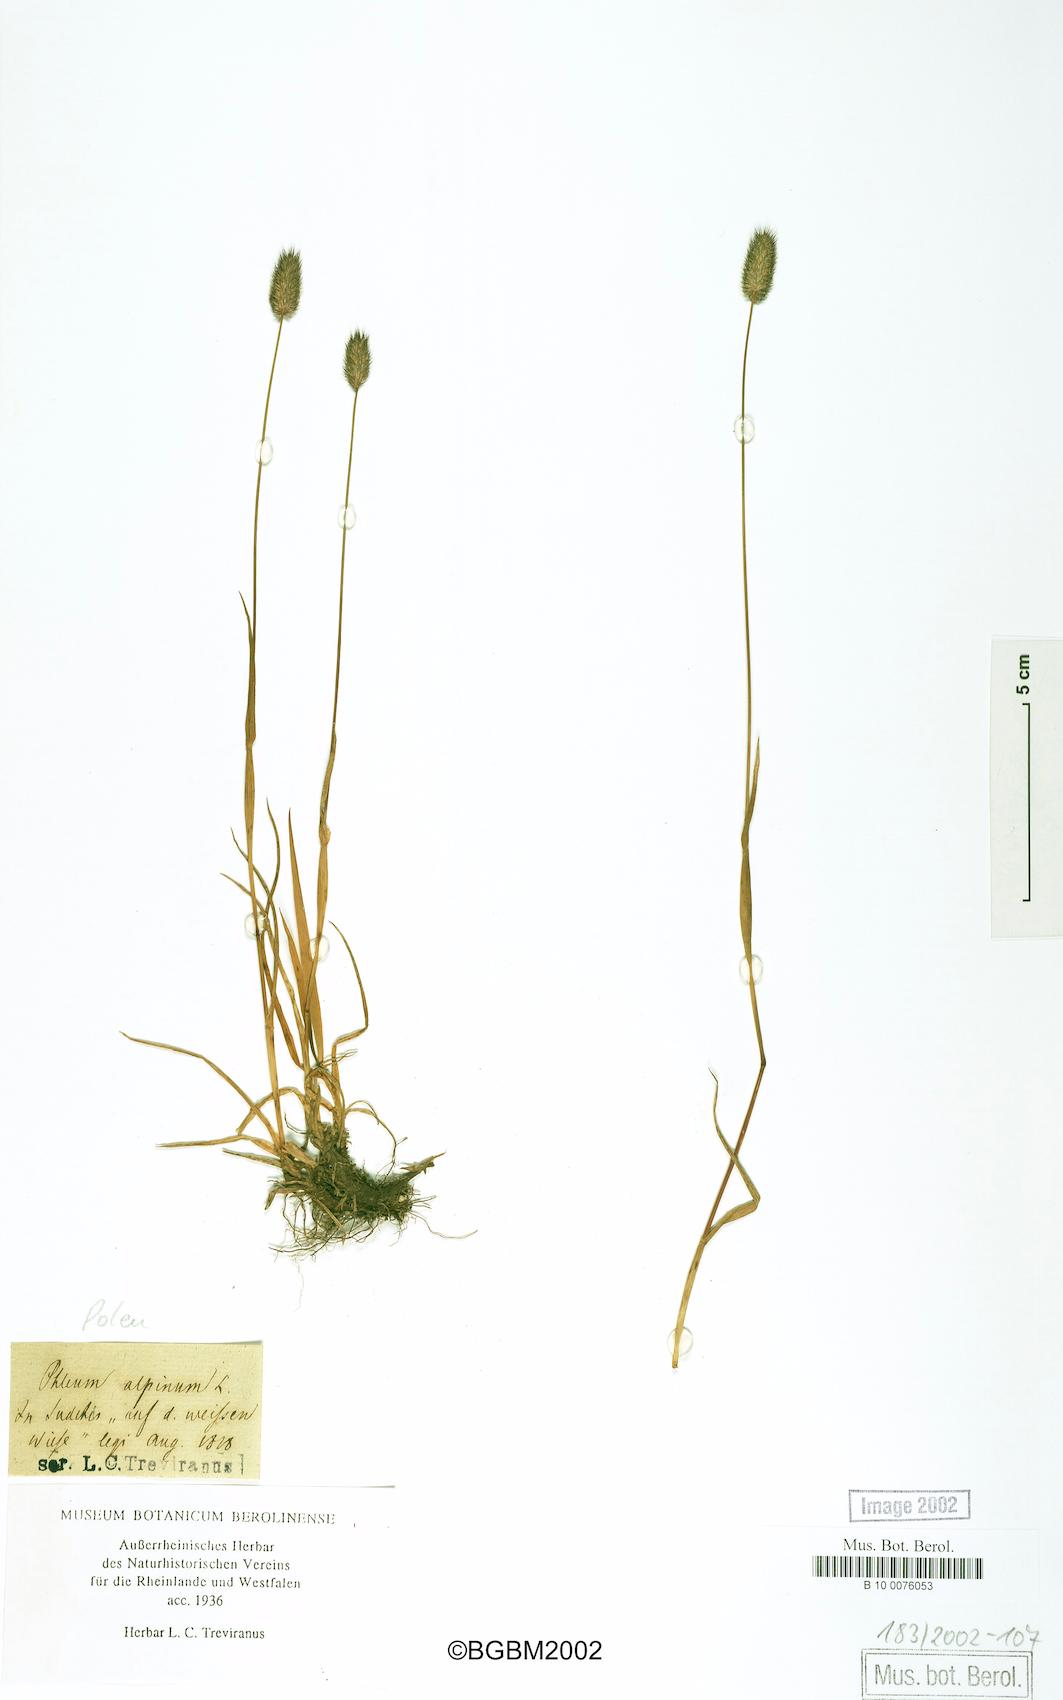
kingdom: Plantae
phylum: Tracheophyta
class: Liliopsida
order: Poales
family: Poaceae
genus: Phleum
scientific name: Phleum alpinum
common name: Alpine cat's-tail
